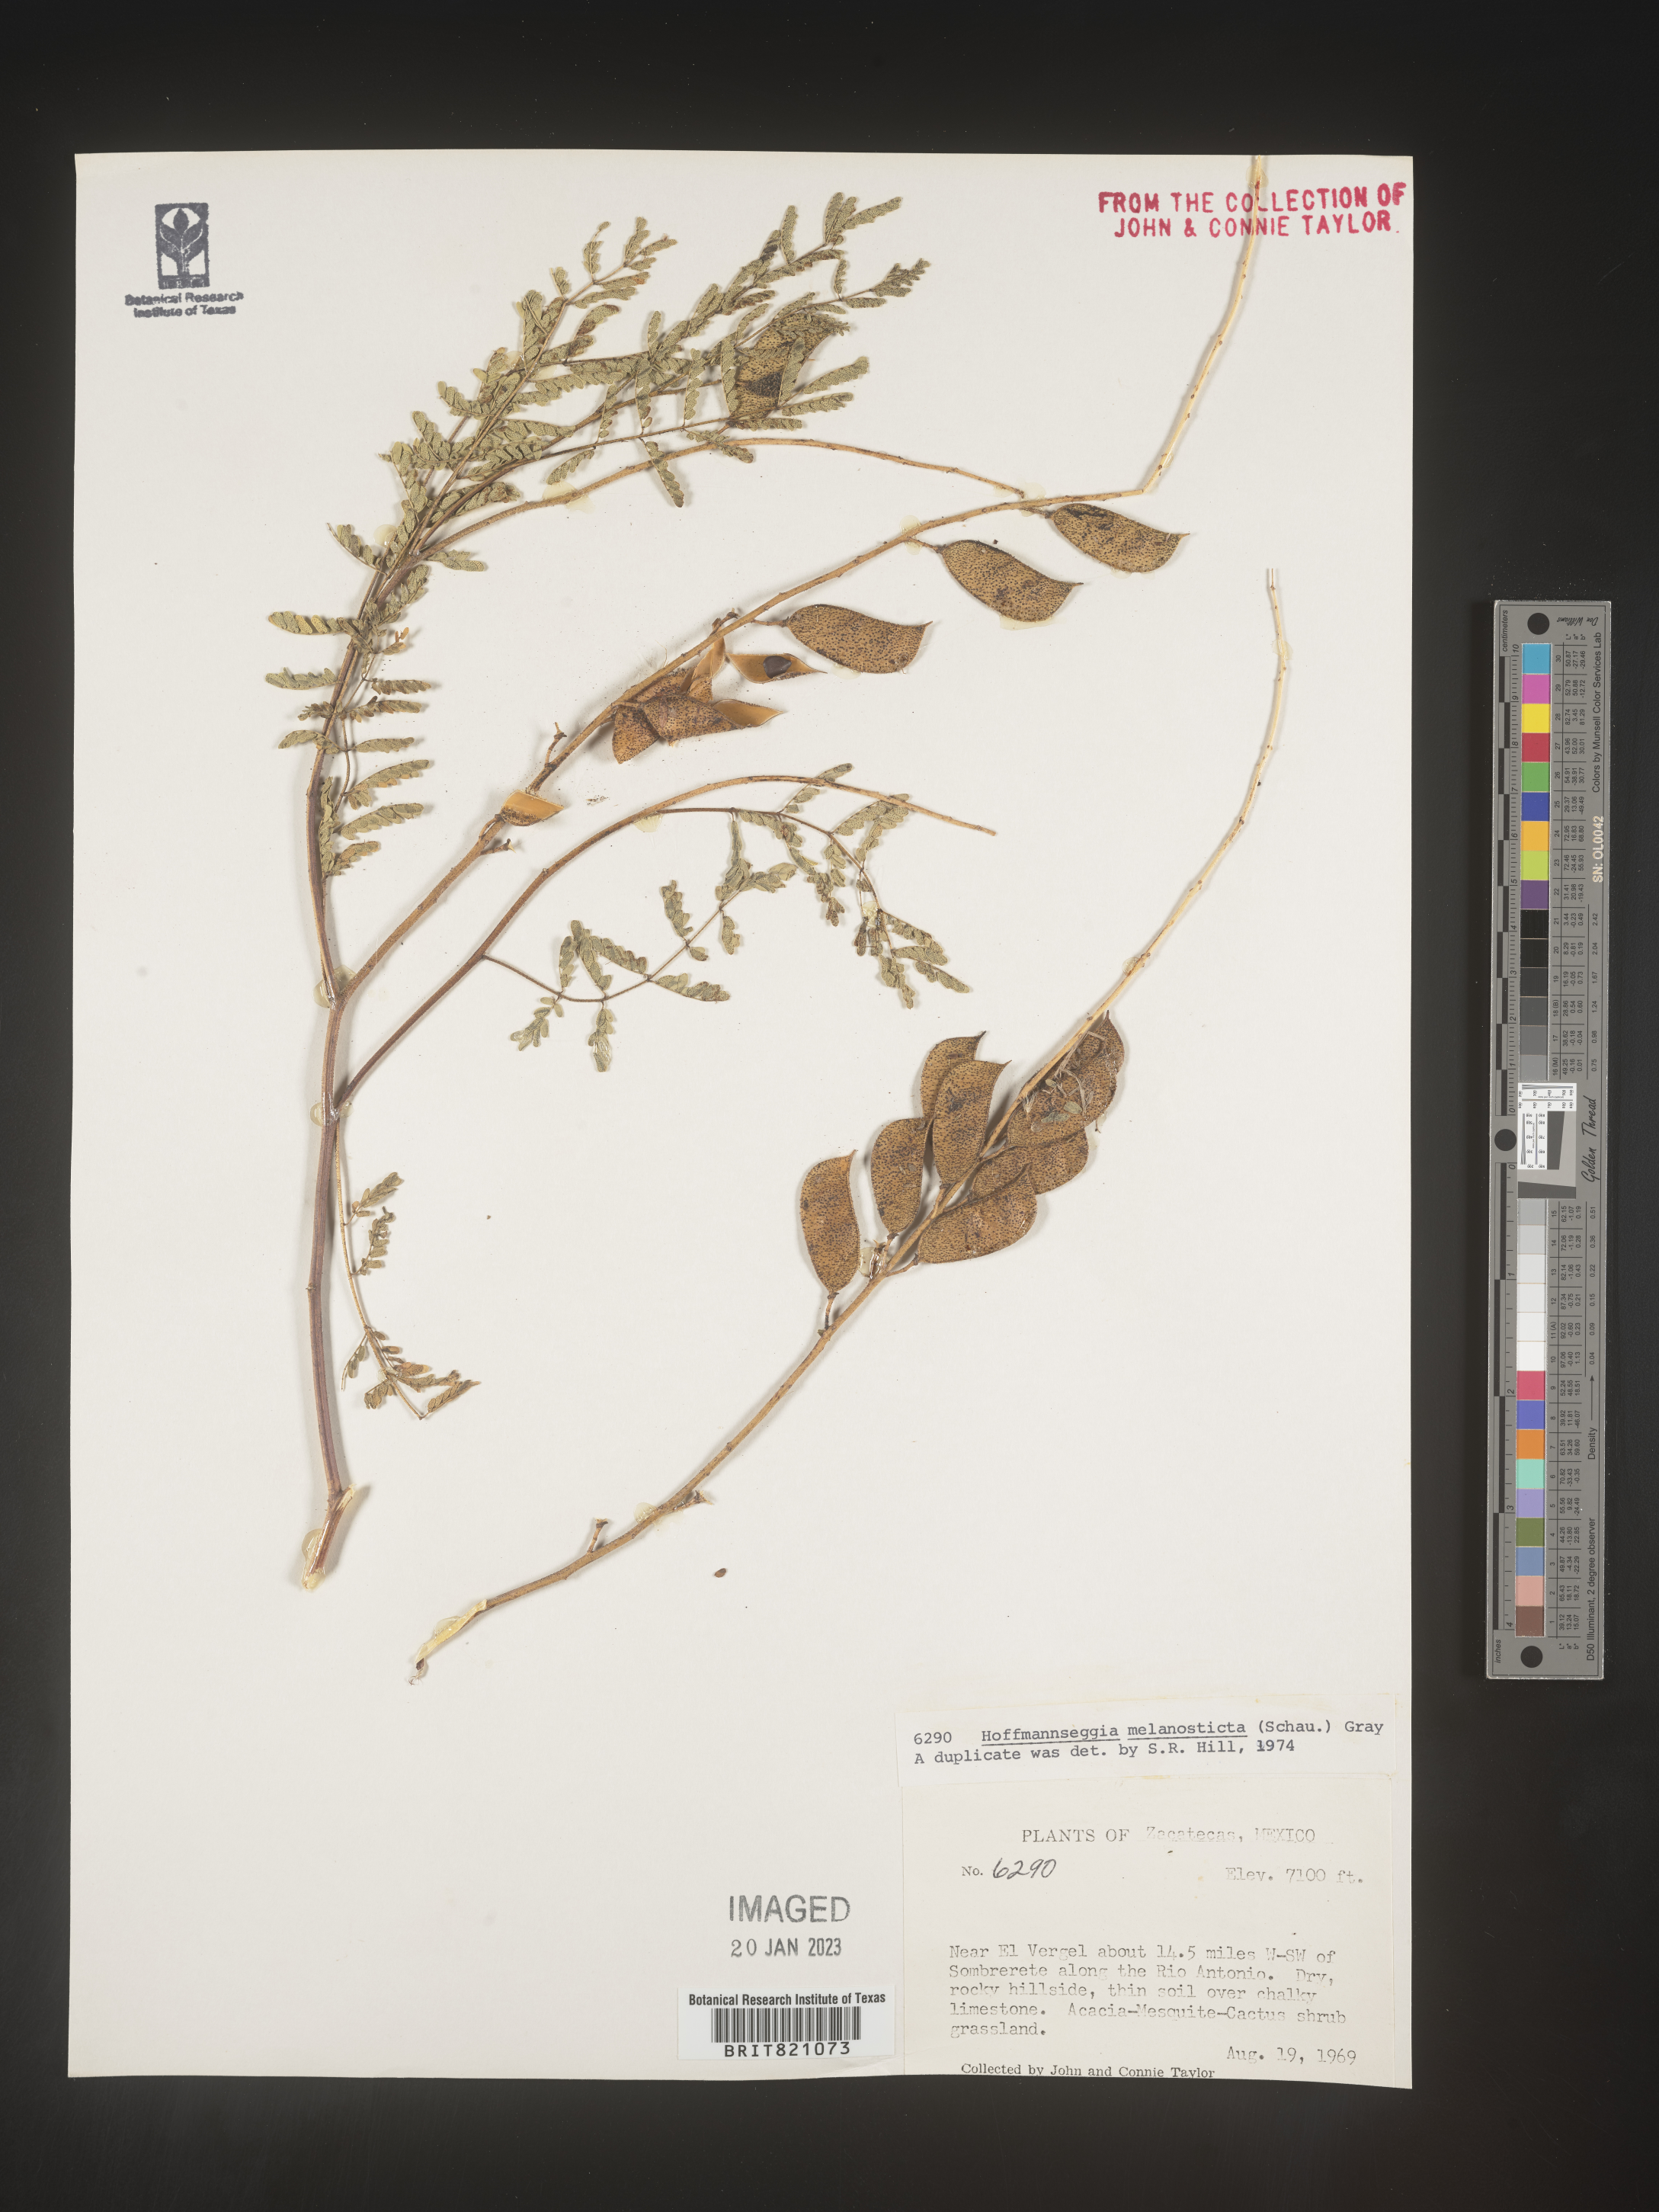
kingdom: Plantae
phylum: Tracheophyta
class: Magnoliopsida
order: Fabales
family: Fabaceae
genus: Hoffmannseggia
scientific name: Hoffmannseggia
